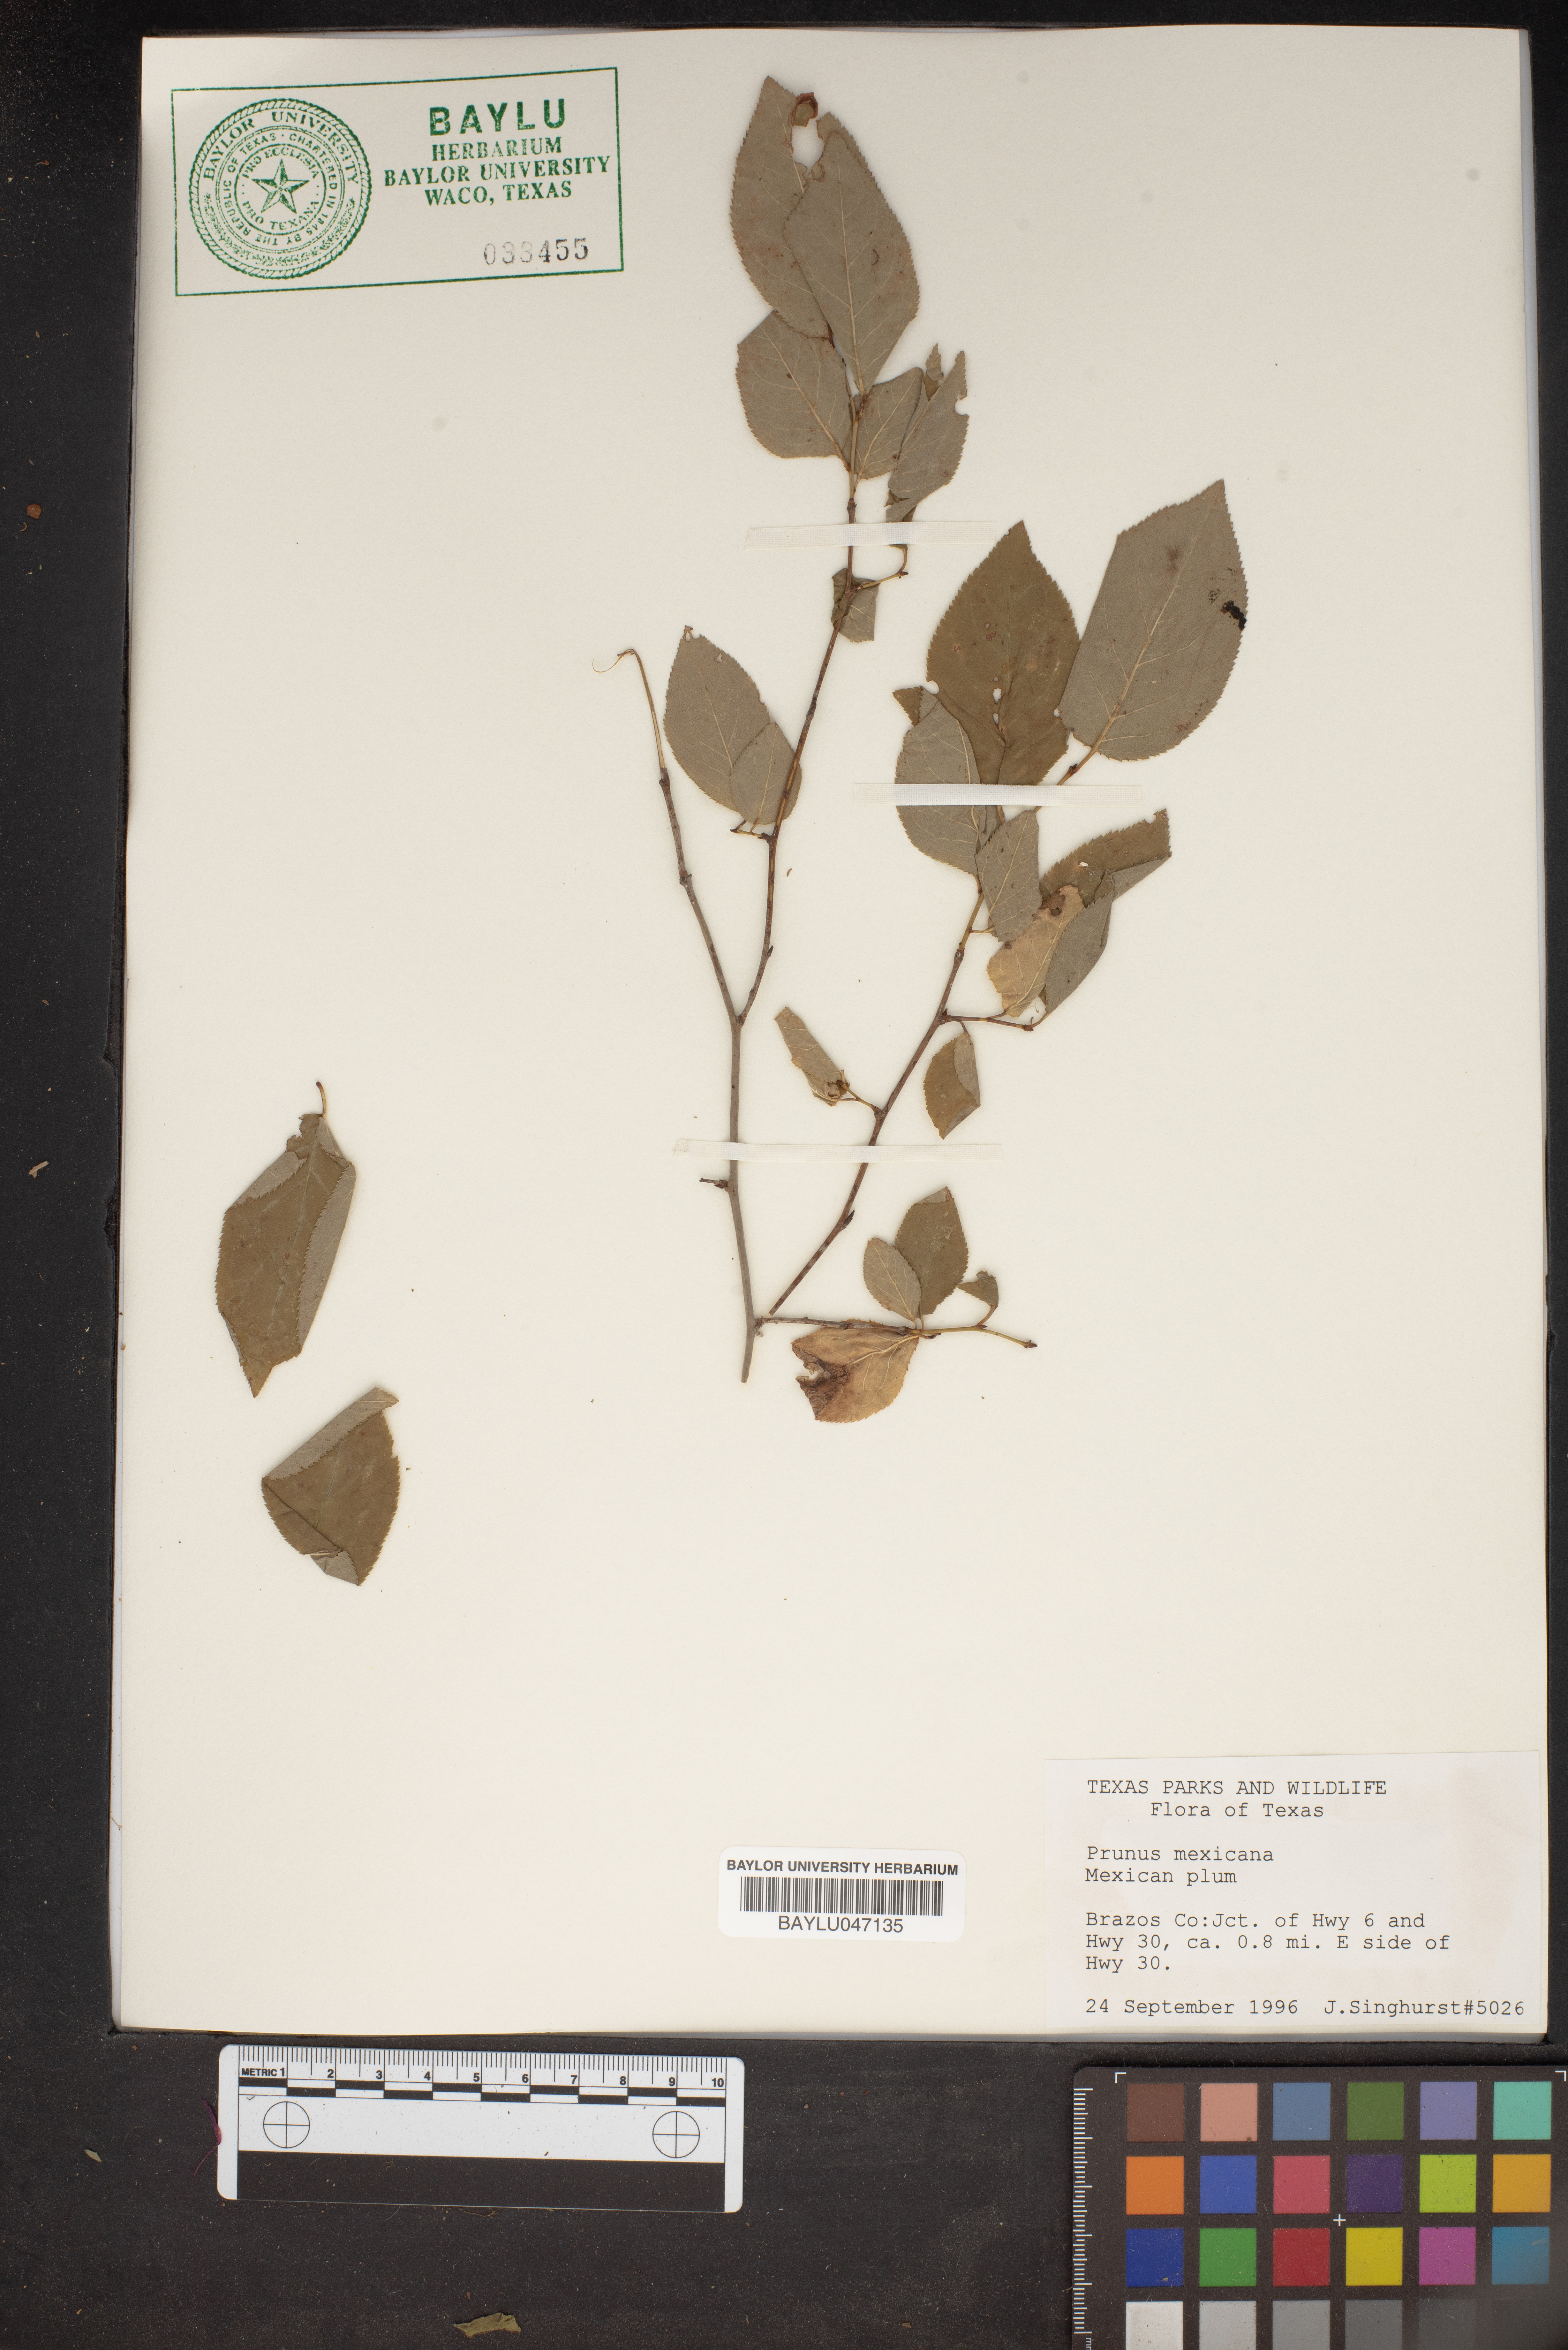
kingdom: Plantae
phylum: Tracheophyta
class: Magnoliopsida
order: Rosales
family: Rosaceae
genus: Prunus
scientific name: Prunus mexicana
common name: Mexican plum
